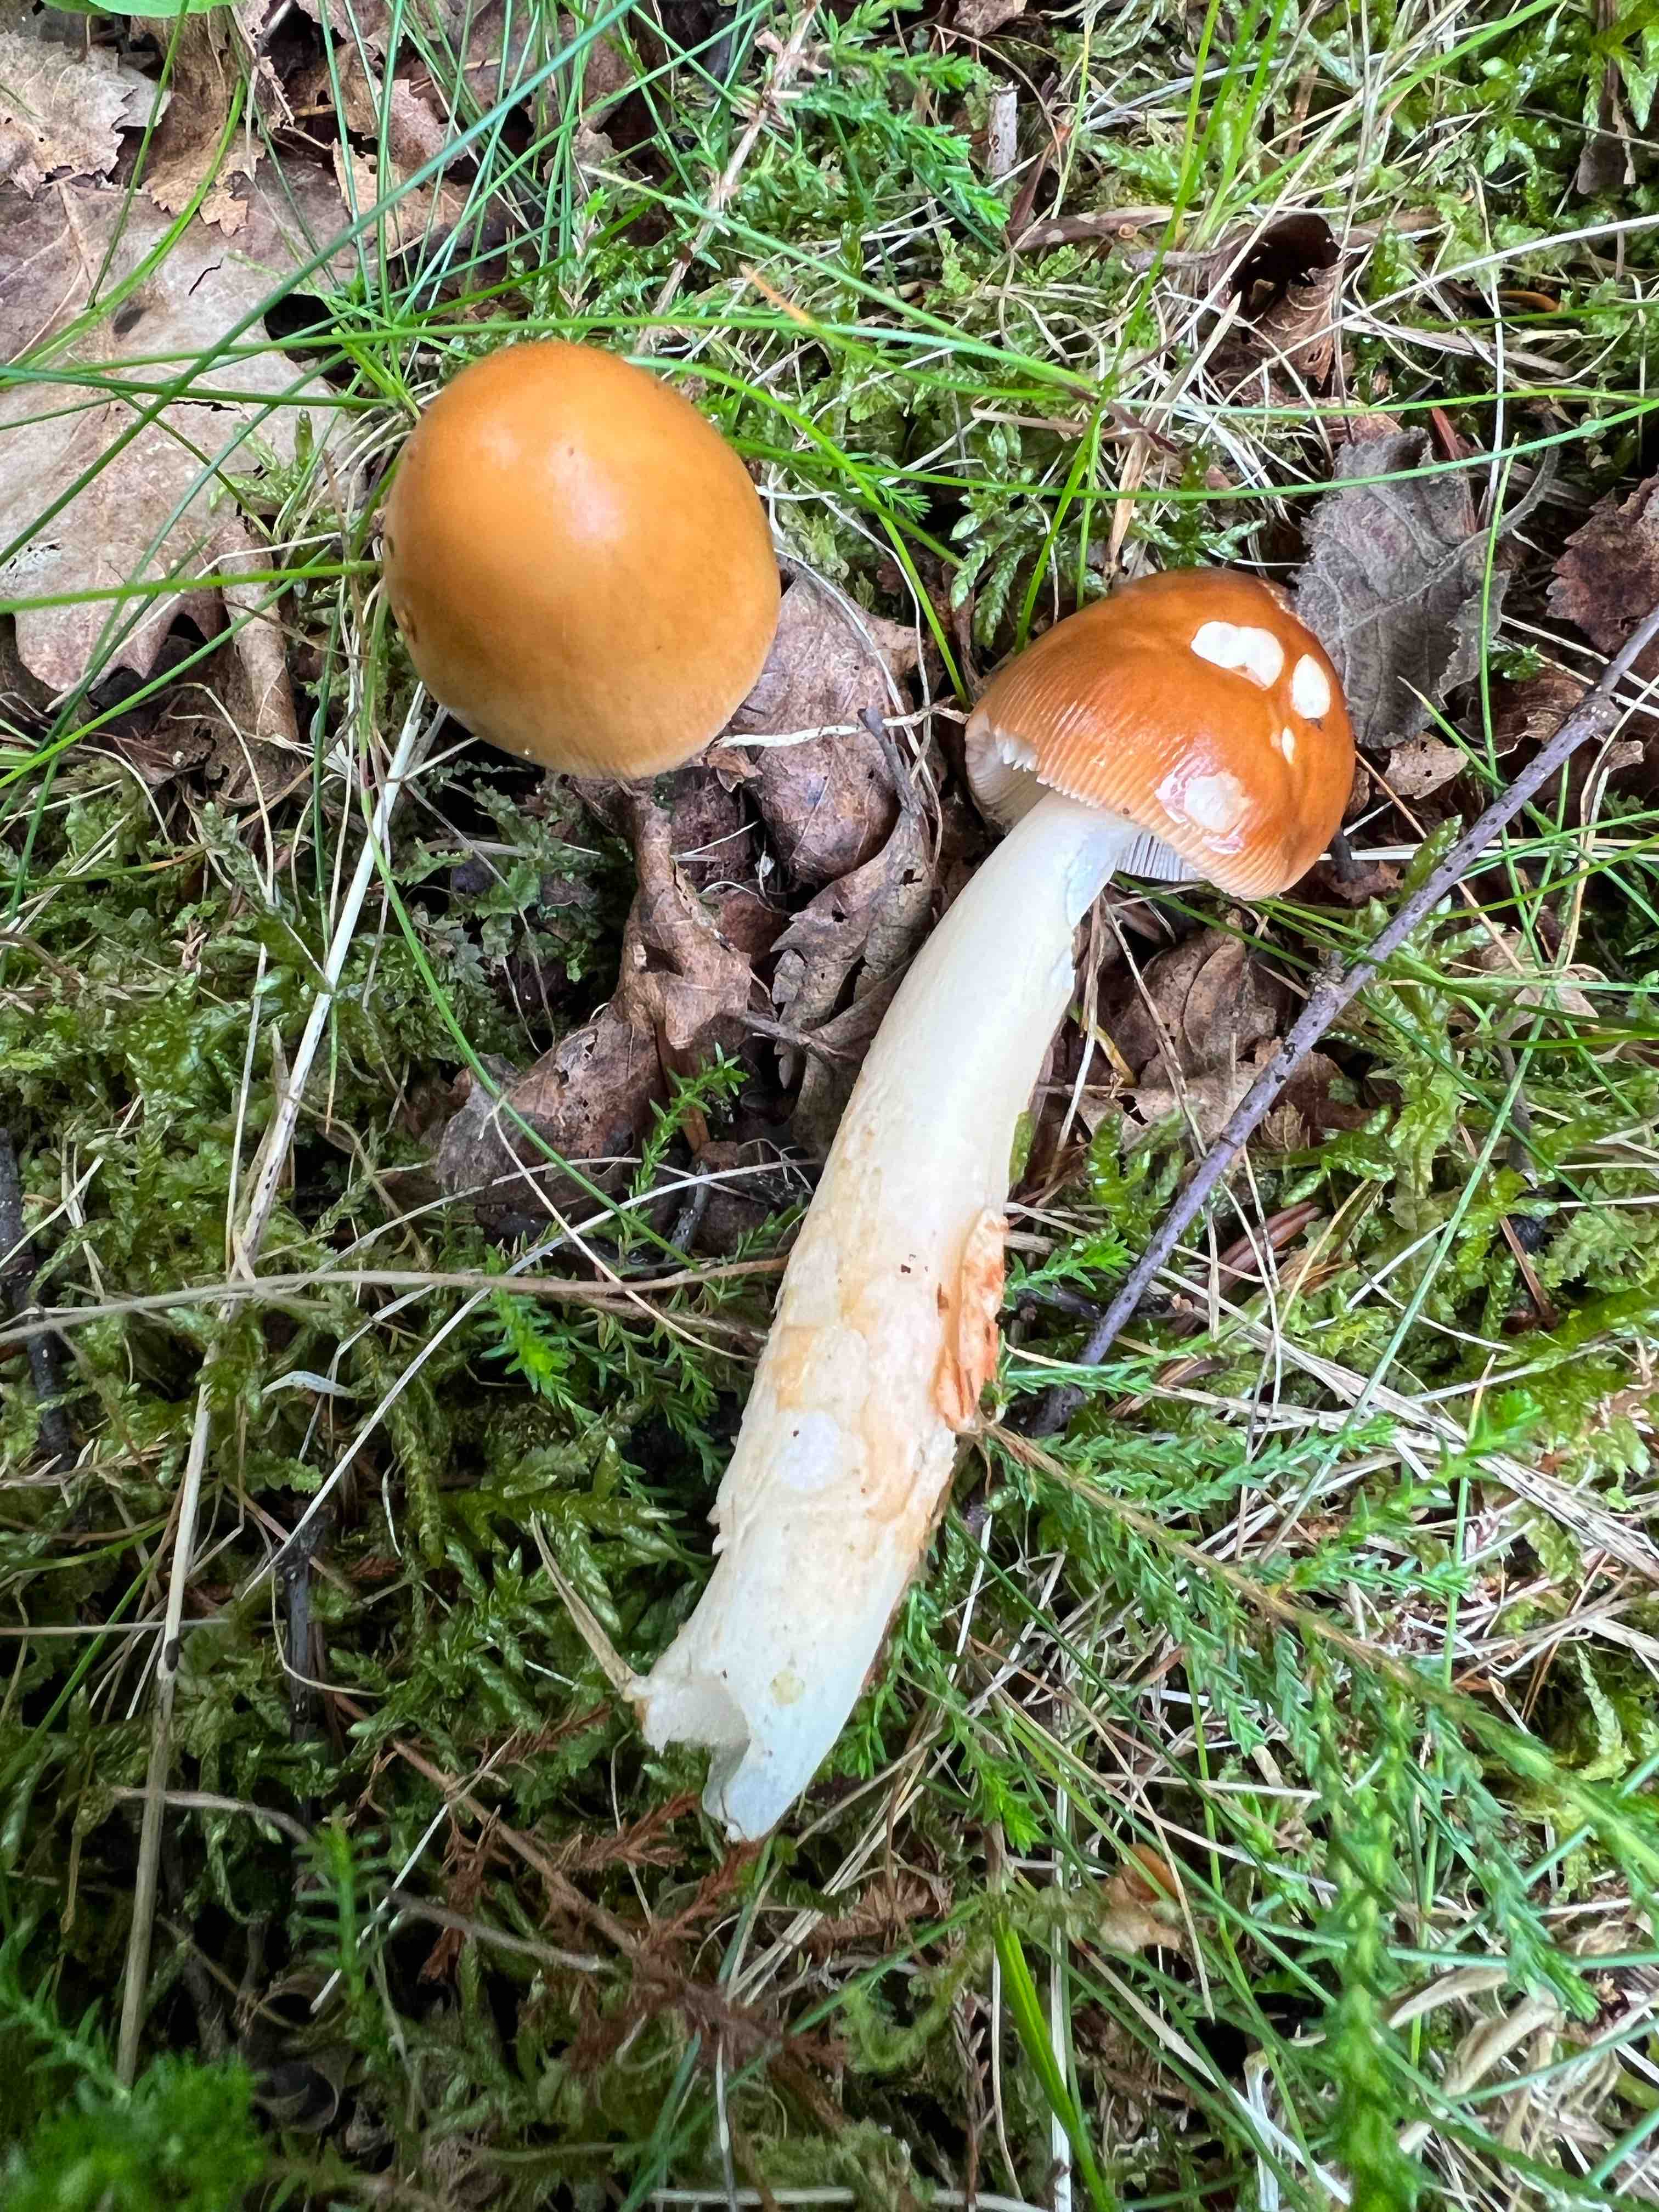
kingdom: Fungi
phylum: Basidiomycota
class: Agaricomycetes
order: Agaricales
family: Amanitaceae
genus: Amanita
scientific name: Amanita fulva
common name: brun kam-fluesvamp
